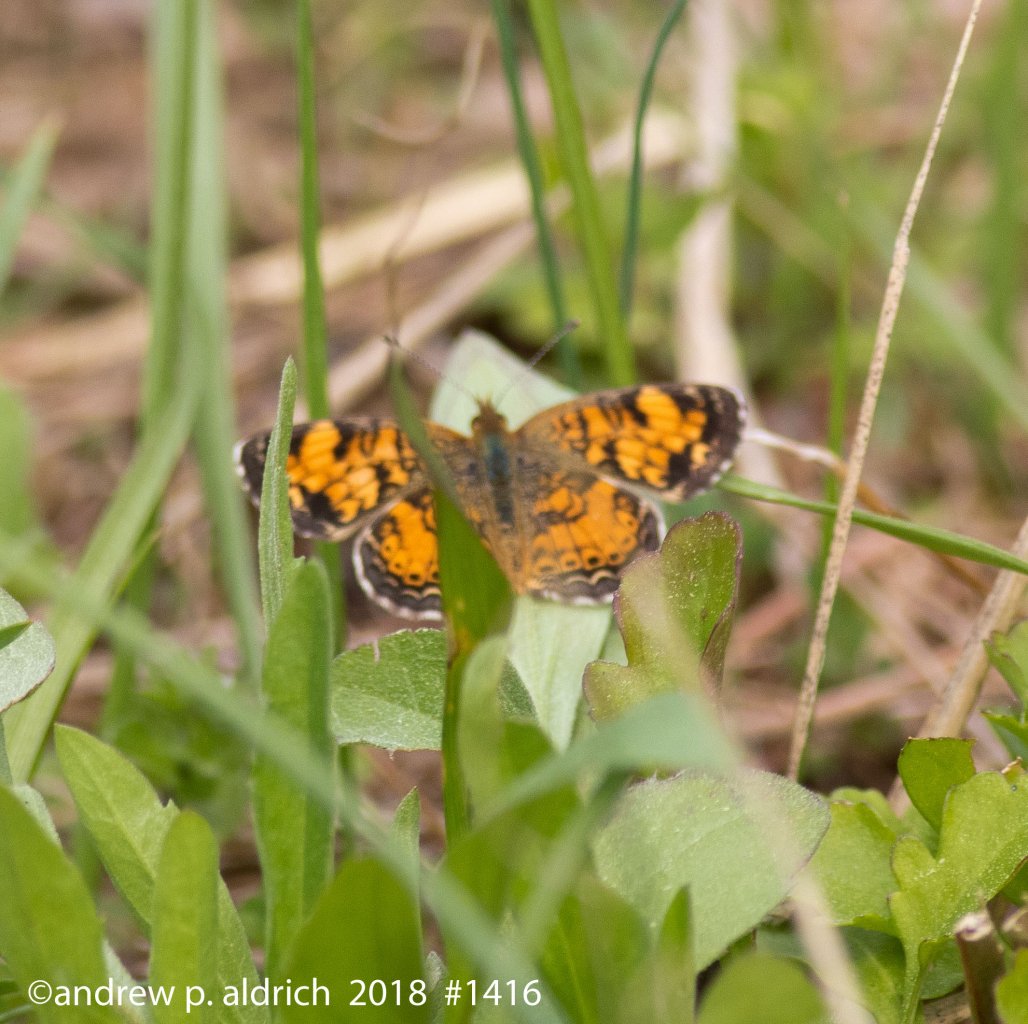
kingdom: Animalia
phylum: Arthropoda
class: Insecta
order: Lepidoptera
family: Nymphalidae
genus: Phyciodes
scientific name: Phyciodes tharos
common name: Pearl Crescent
